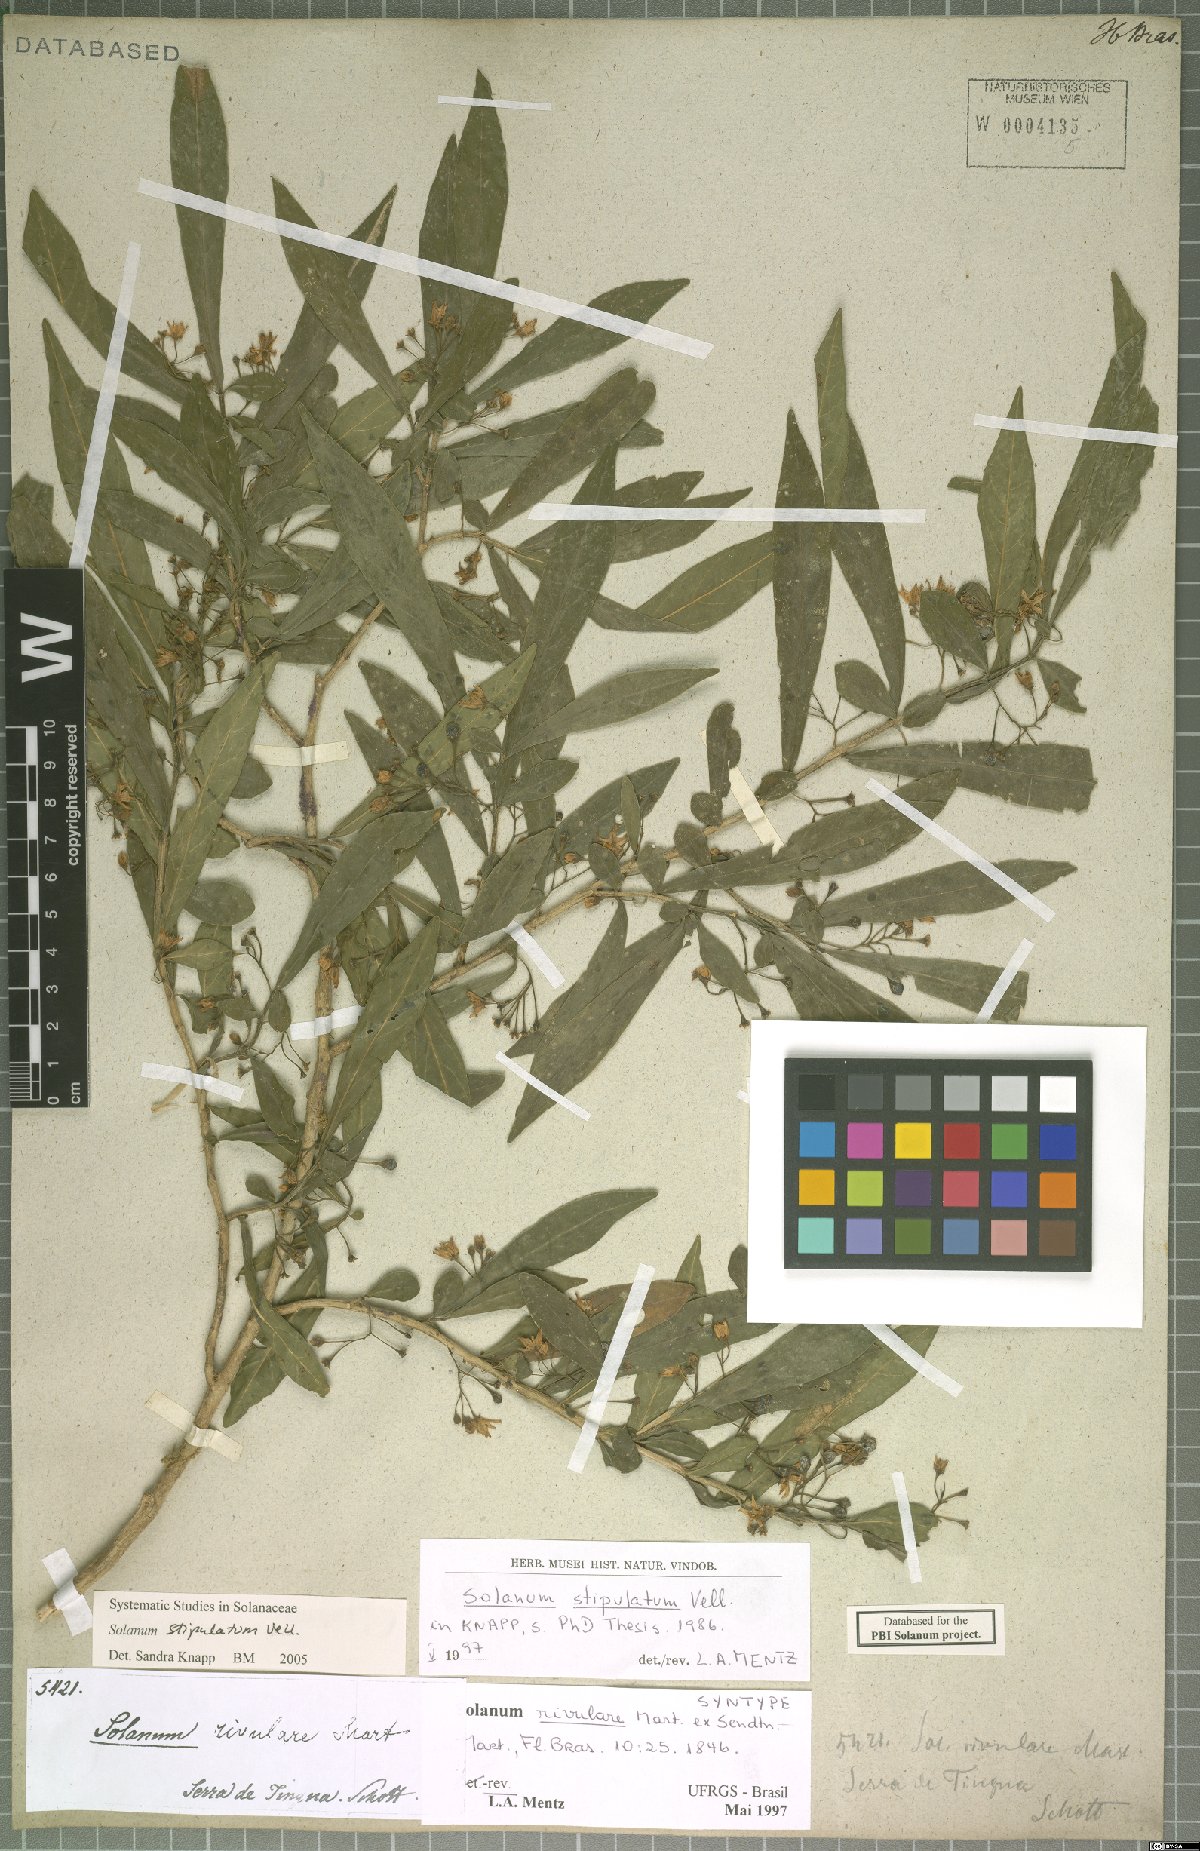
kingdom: Plantae
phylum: Tracheophyta
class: Magnoliopsida
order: Solanales
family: Solanaceae
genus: Solanum
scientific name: Solanum stipulatum
